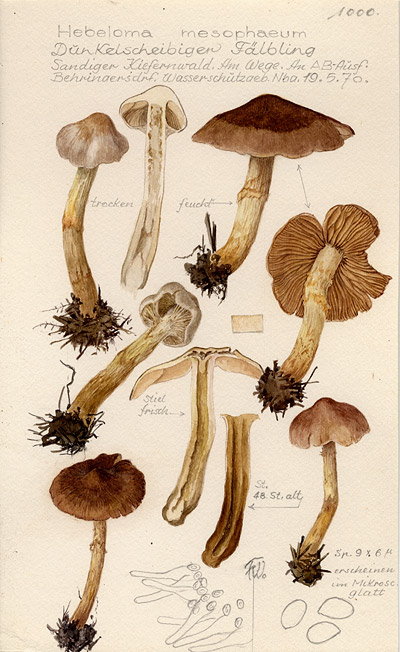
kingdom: Fungi
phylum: Basidiomycota
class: Agaricomycetes
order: Agaricales
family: Hymenogastraceae
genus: Hebeloma
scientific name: Hebeloma mesophaeum
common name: Veiled poisonpie
